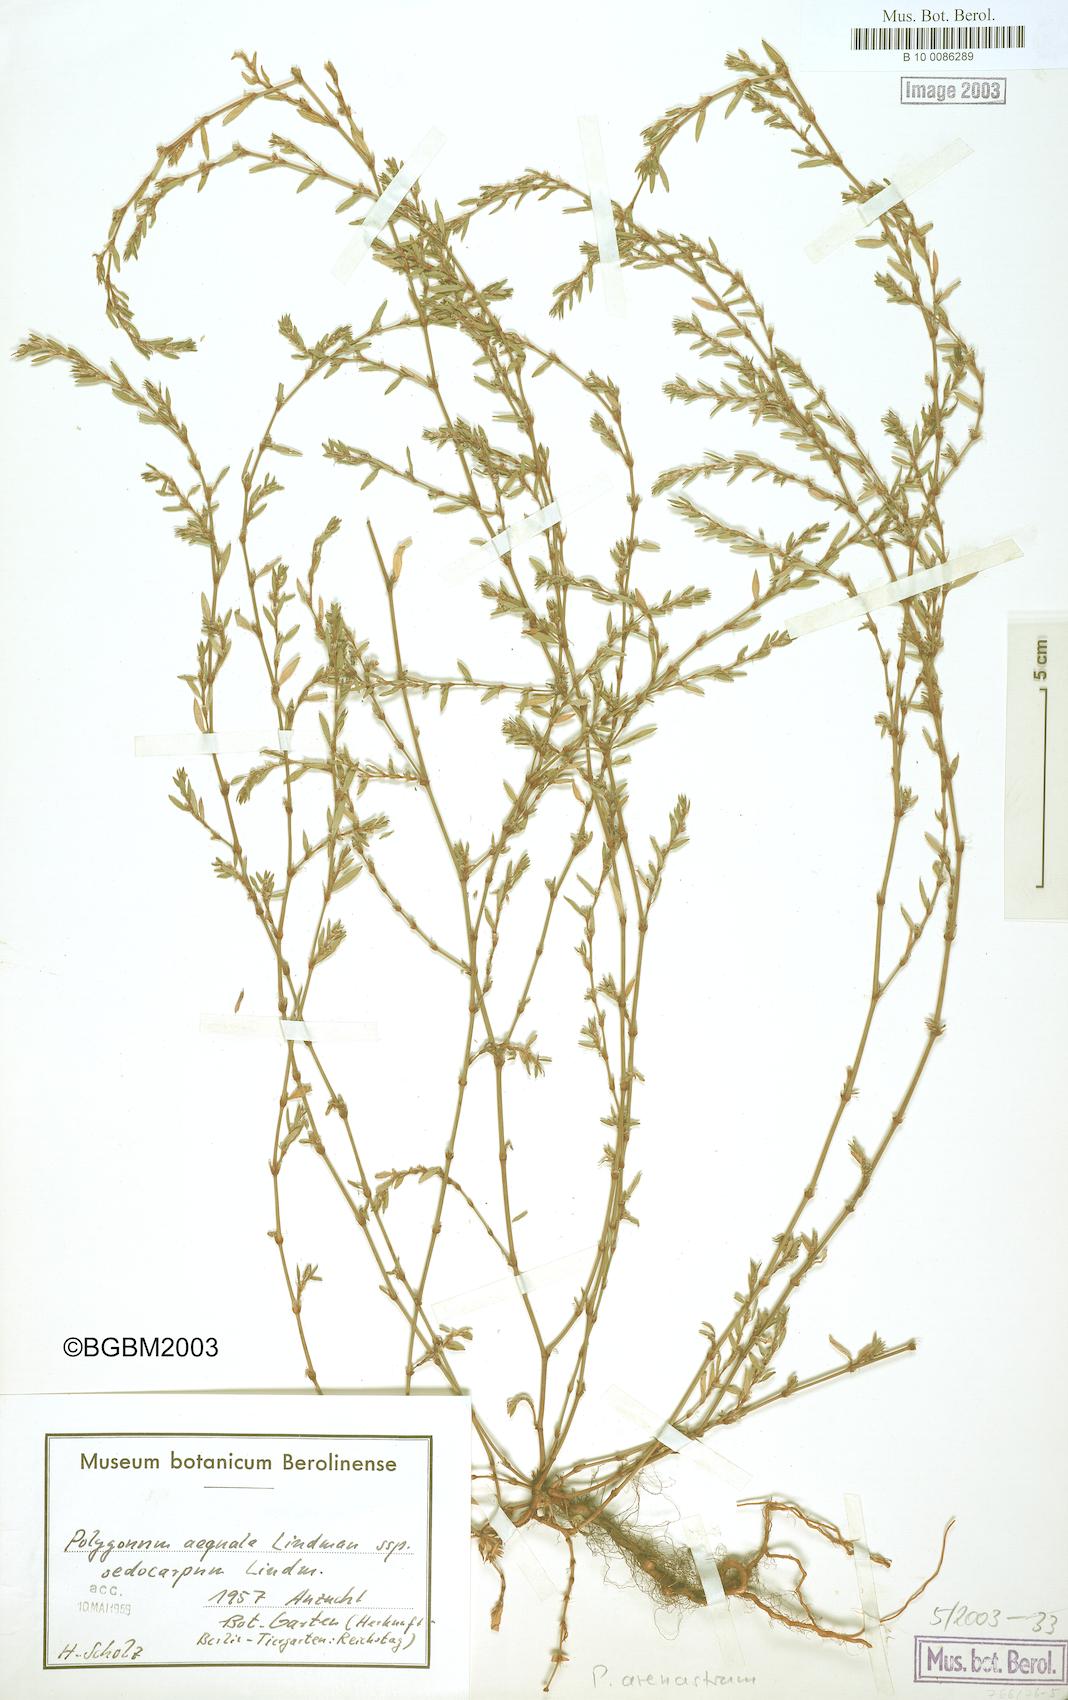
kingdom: Plantae
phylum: Tracheophyta
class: Magnoliopsida
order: Caryophyllales
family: Polygonaceae
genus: Polygonum
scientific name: Polygonum arenastrum
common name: Equal-leaved knotgrass
